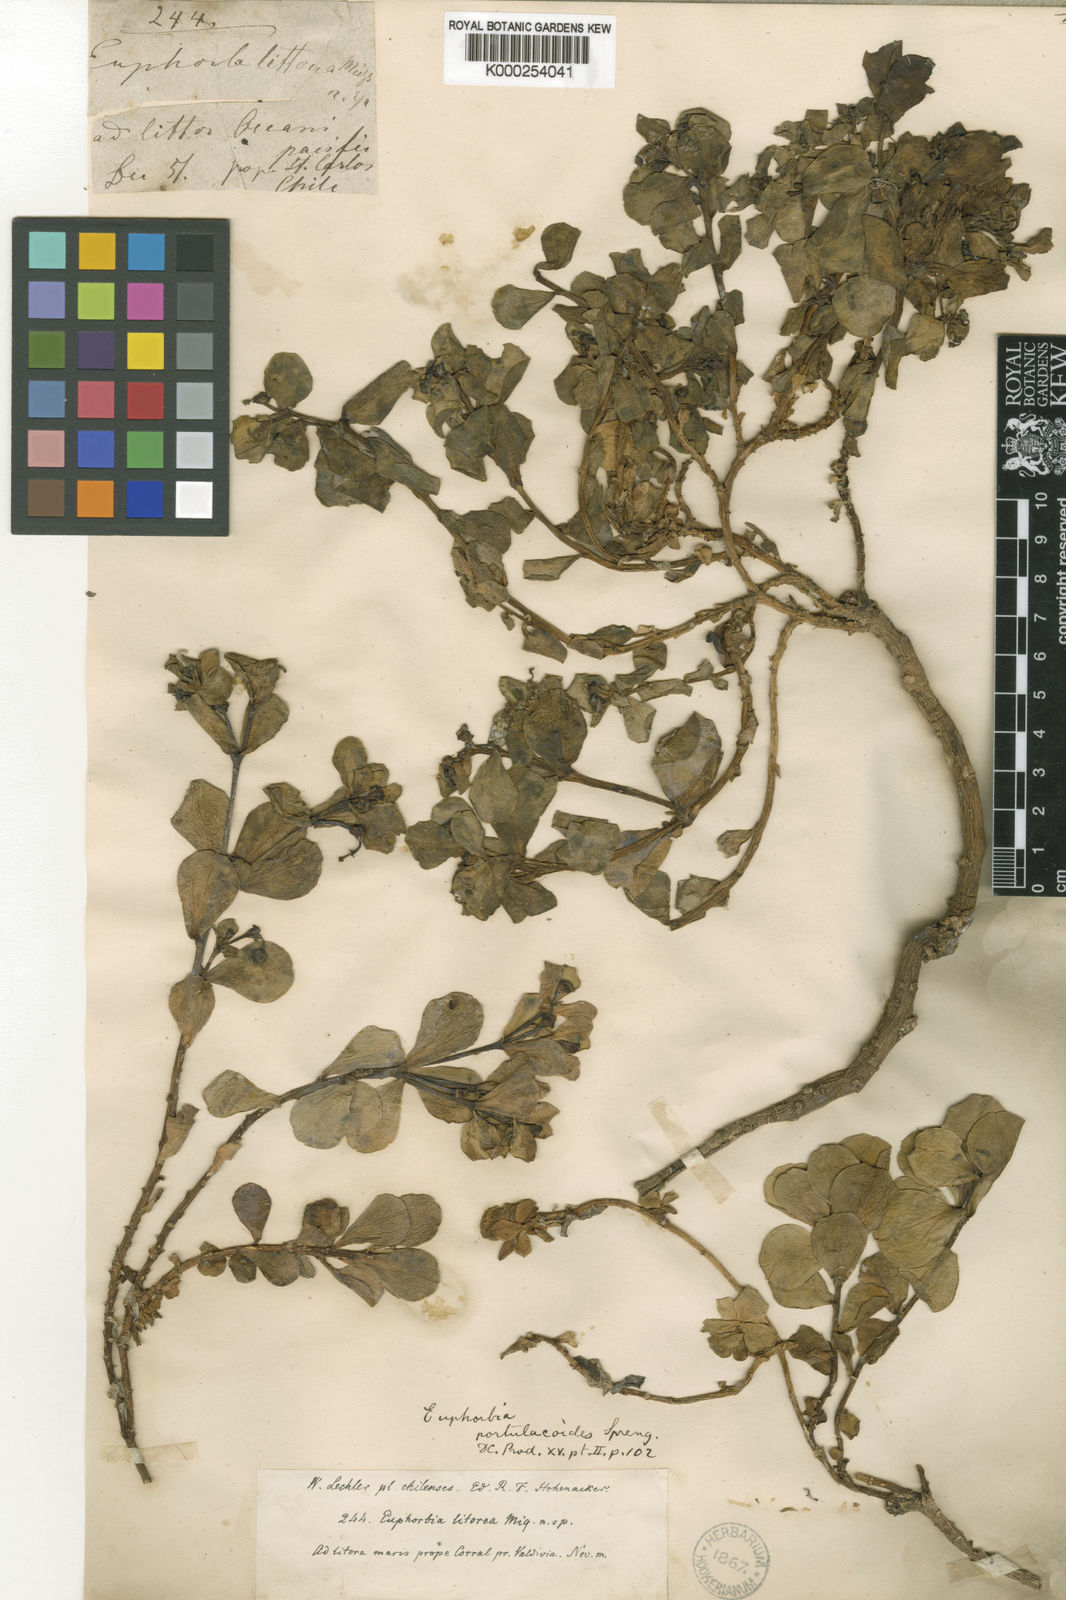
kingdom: Plantae
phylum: Tracheophyta
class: Magnoliopsida
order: Malpighiales
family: Euphorbiaceae
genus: Euphorbia
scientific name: Euphorbia portulacoides
